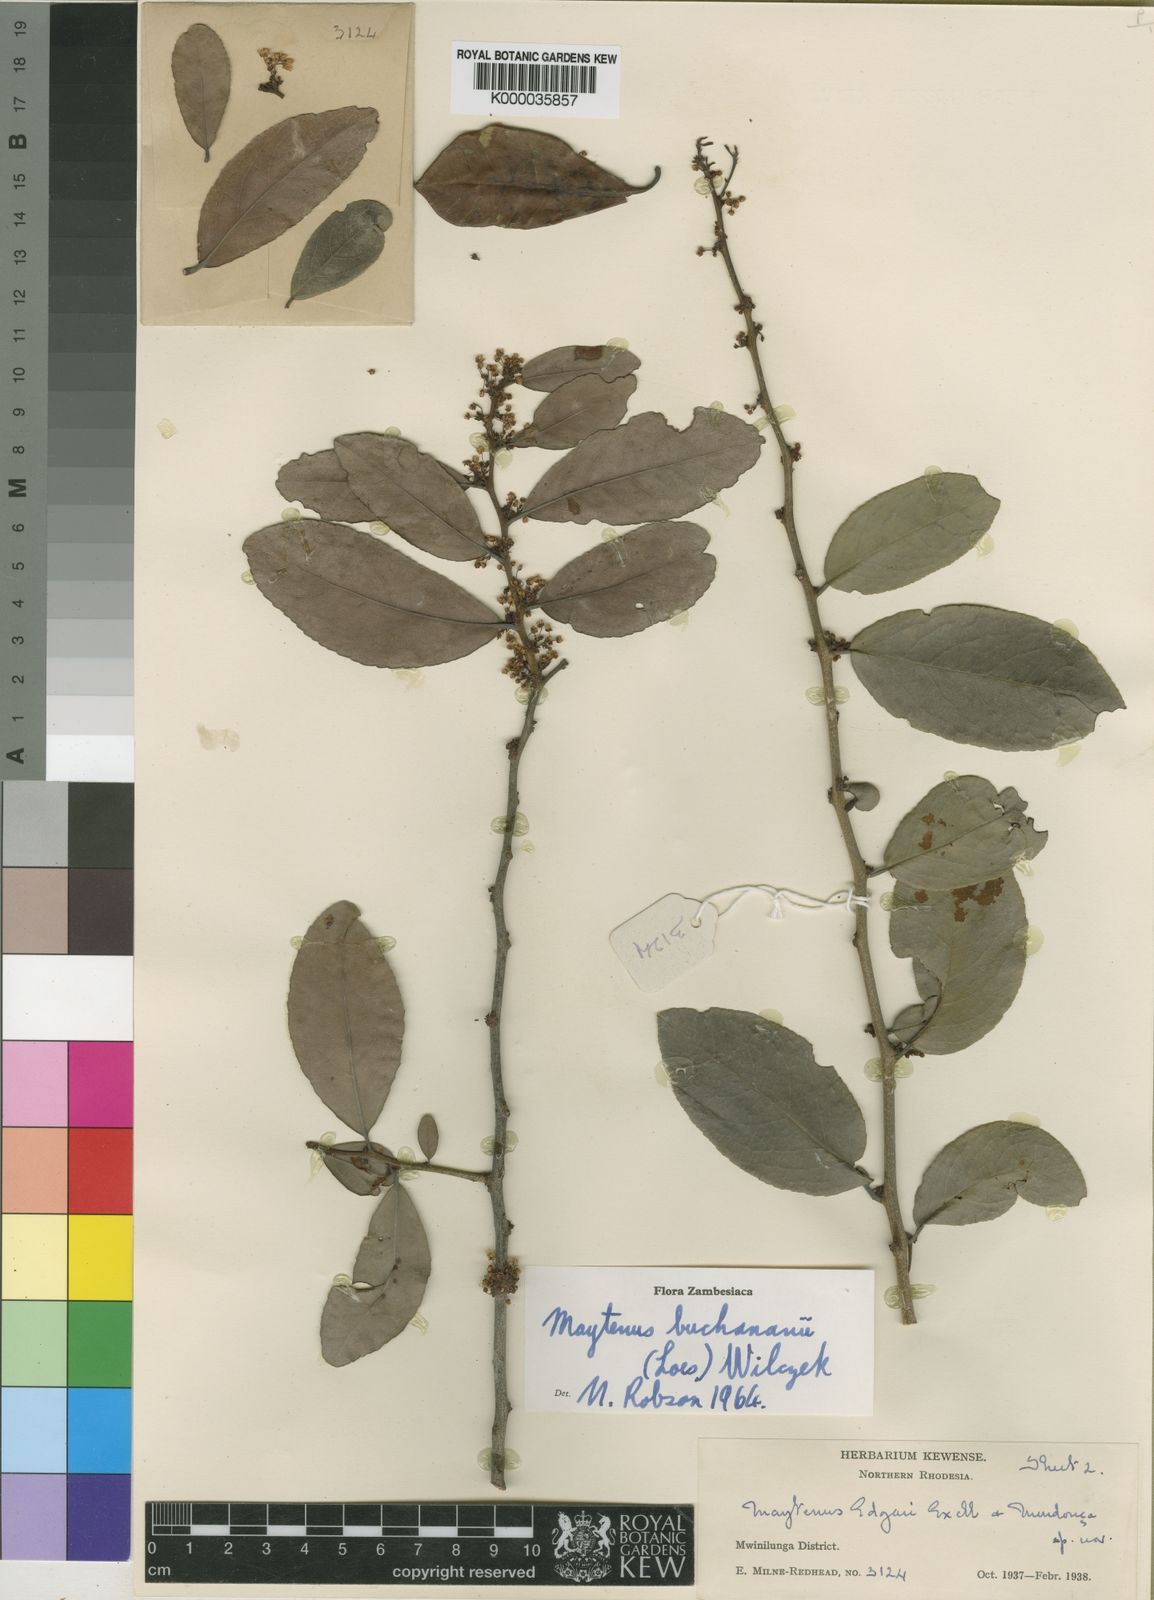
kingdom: Plantae
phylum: Tracheophyta
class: Magnoliopsida
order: Celastrales
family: Celastraceae
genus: Gymnosporia
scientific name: Gymnosporia buchananii
